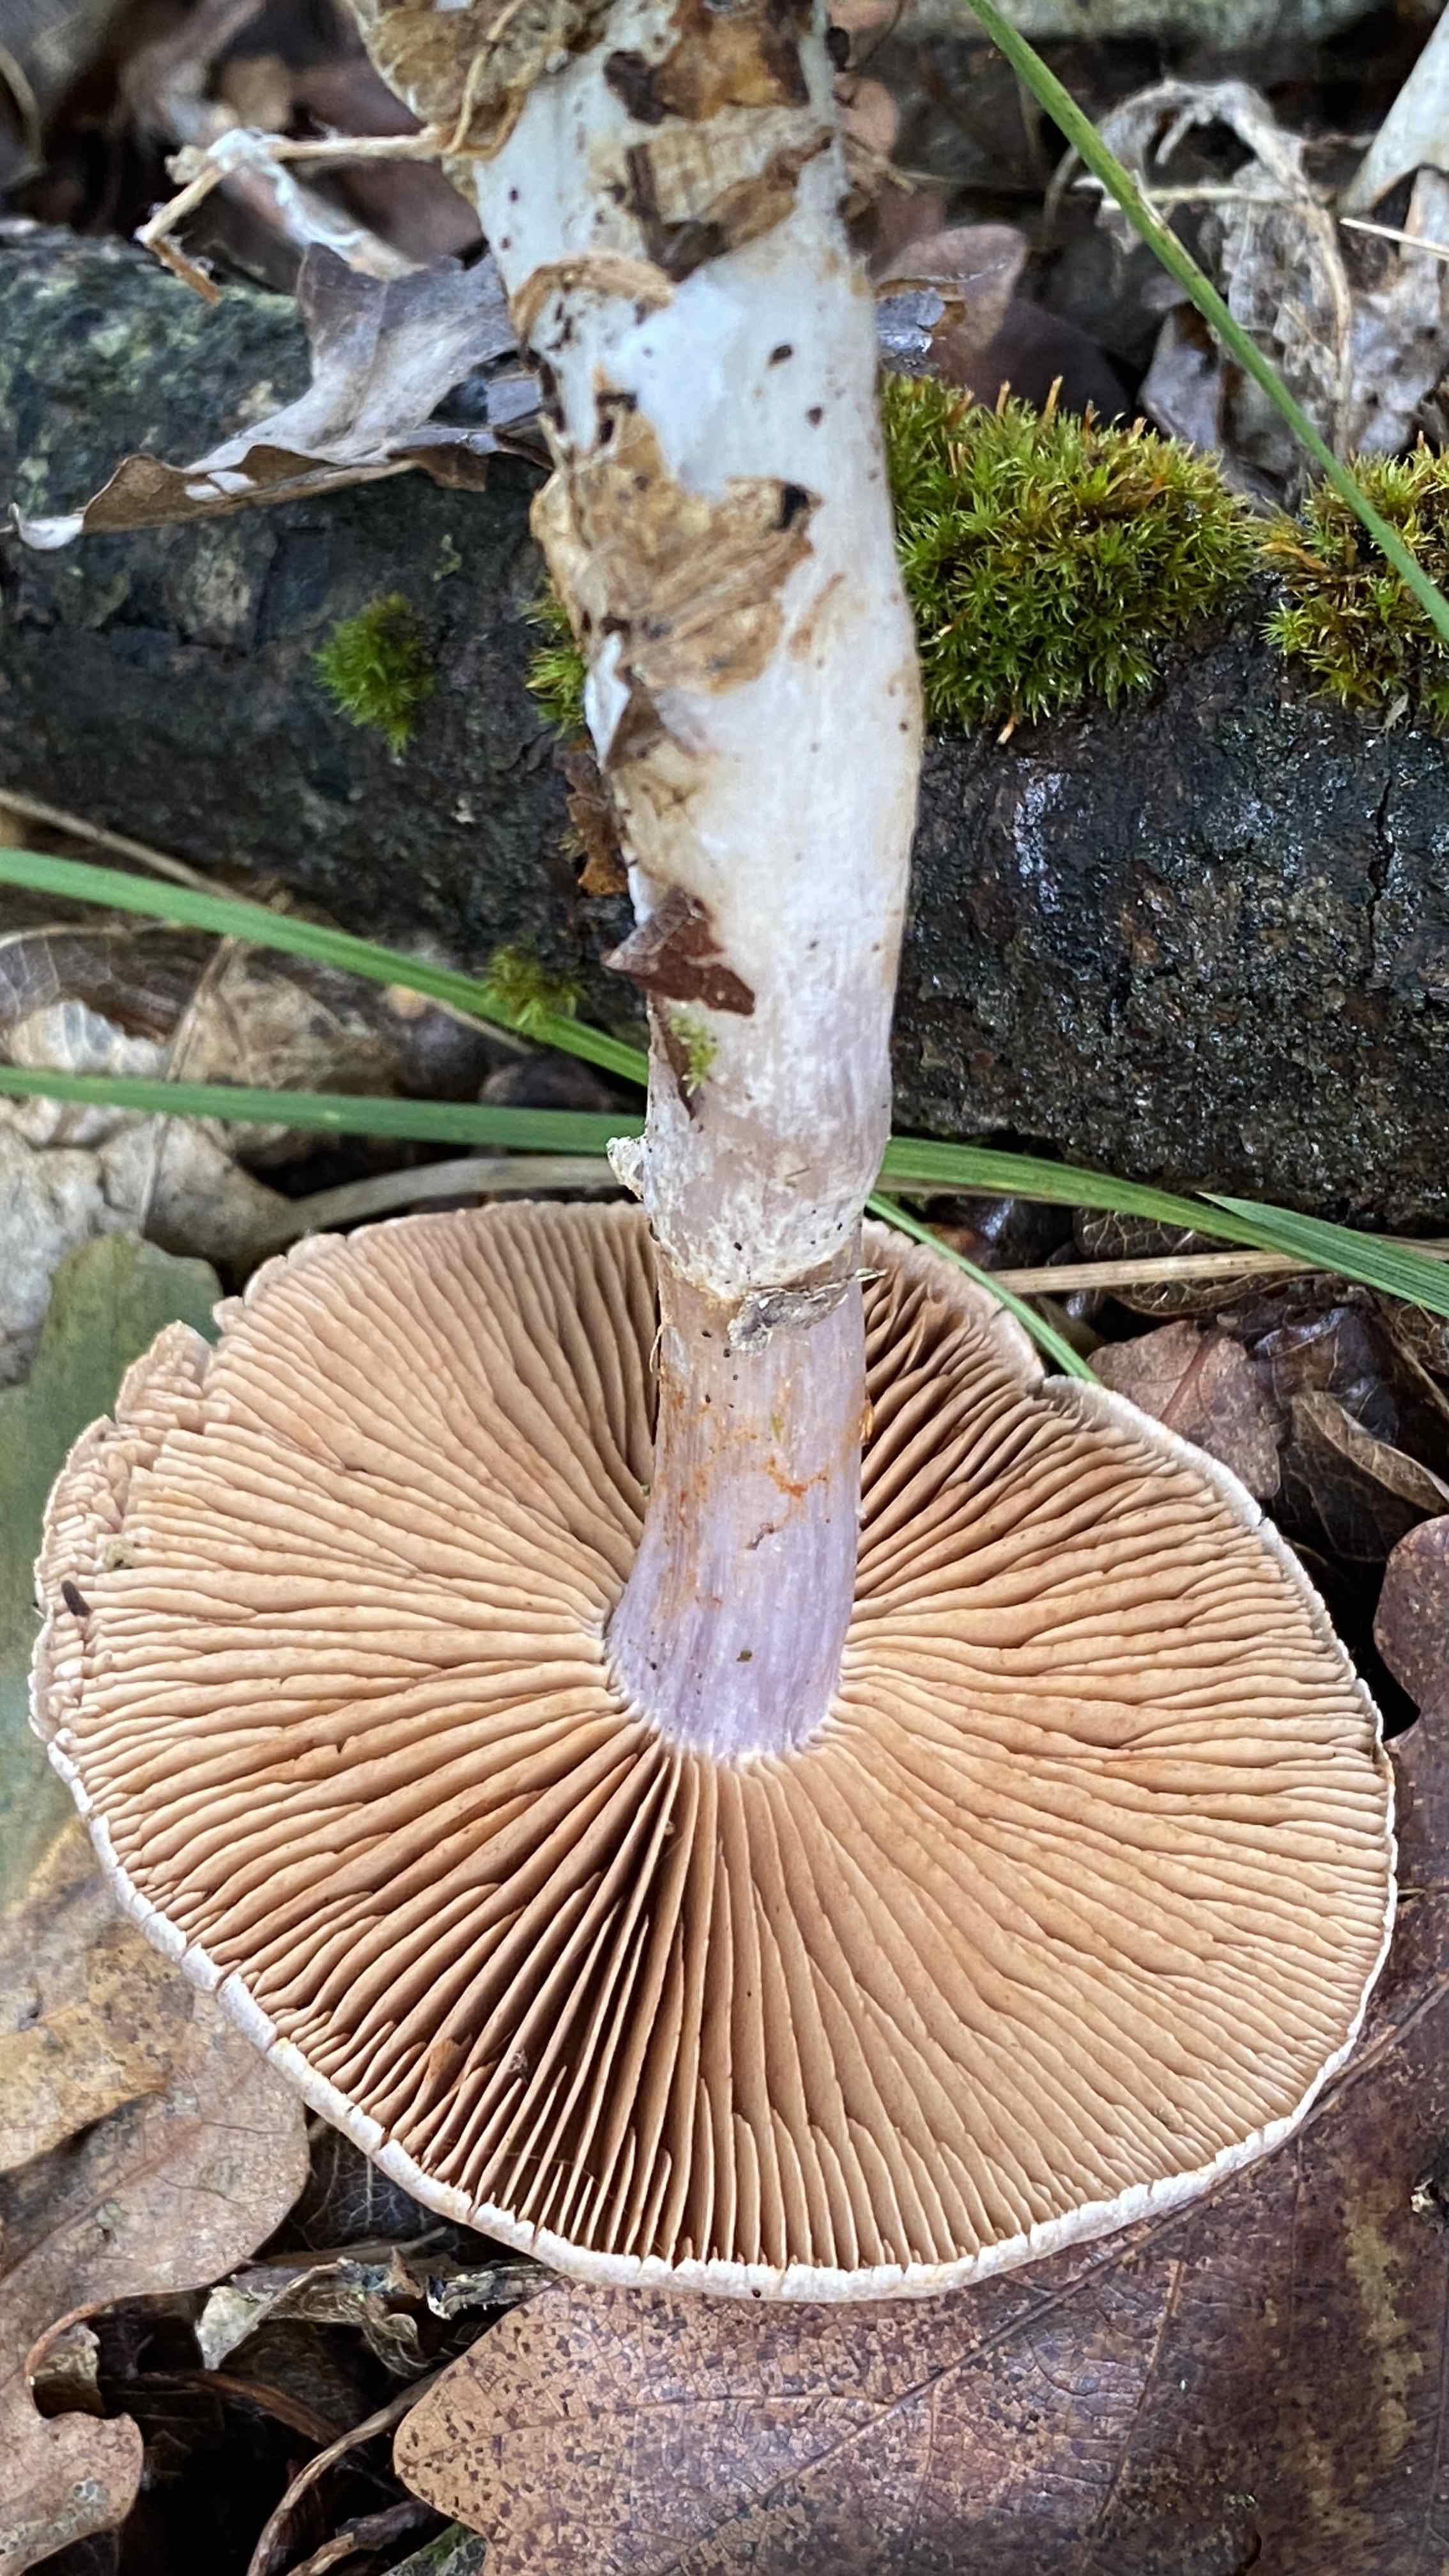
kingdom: Fungi
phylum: Basidiomycota
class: Agaricomycetes
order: Agaricales
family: Cortinariaceae
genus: Cortinarius
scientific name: Cortinarius alboviolaceus
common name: lysviolet slørhat
